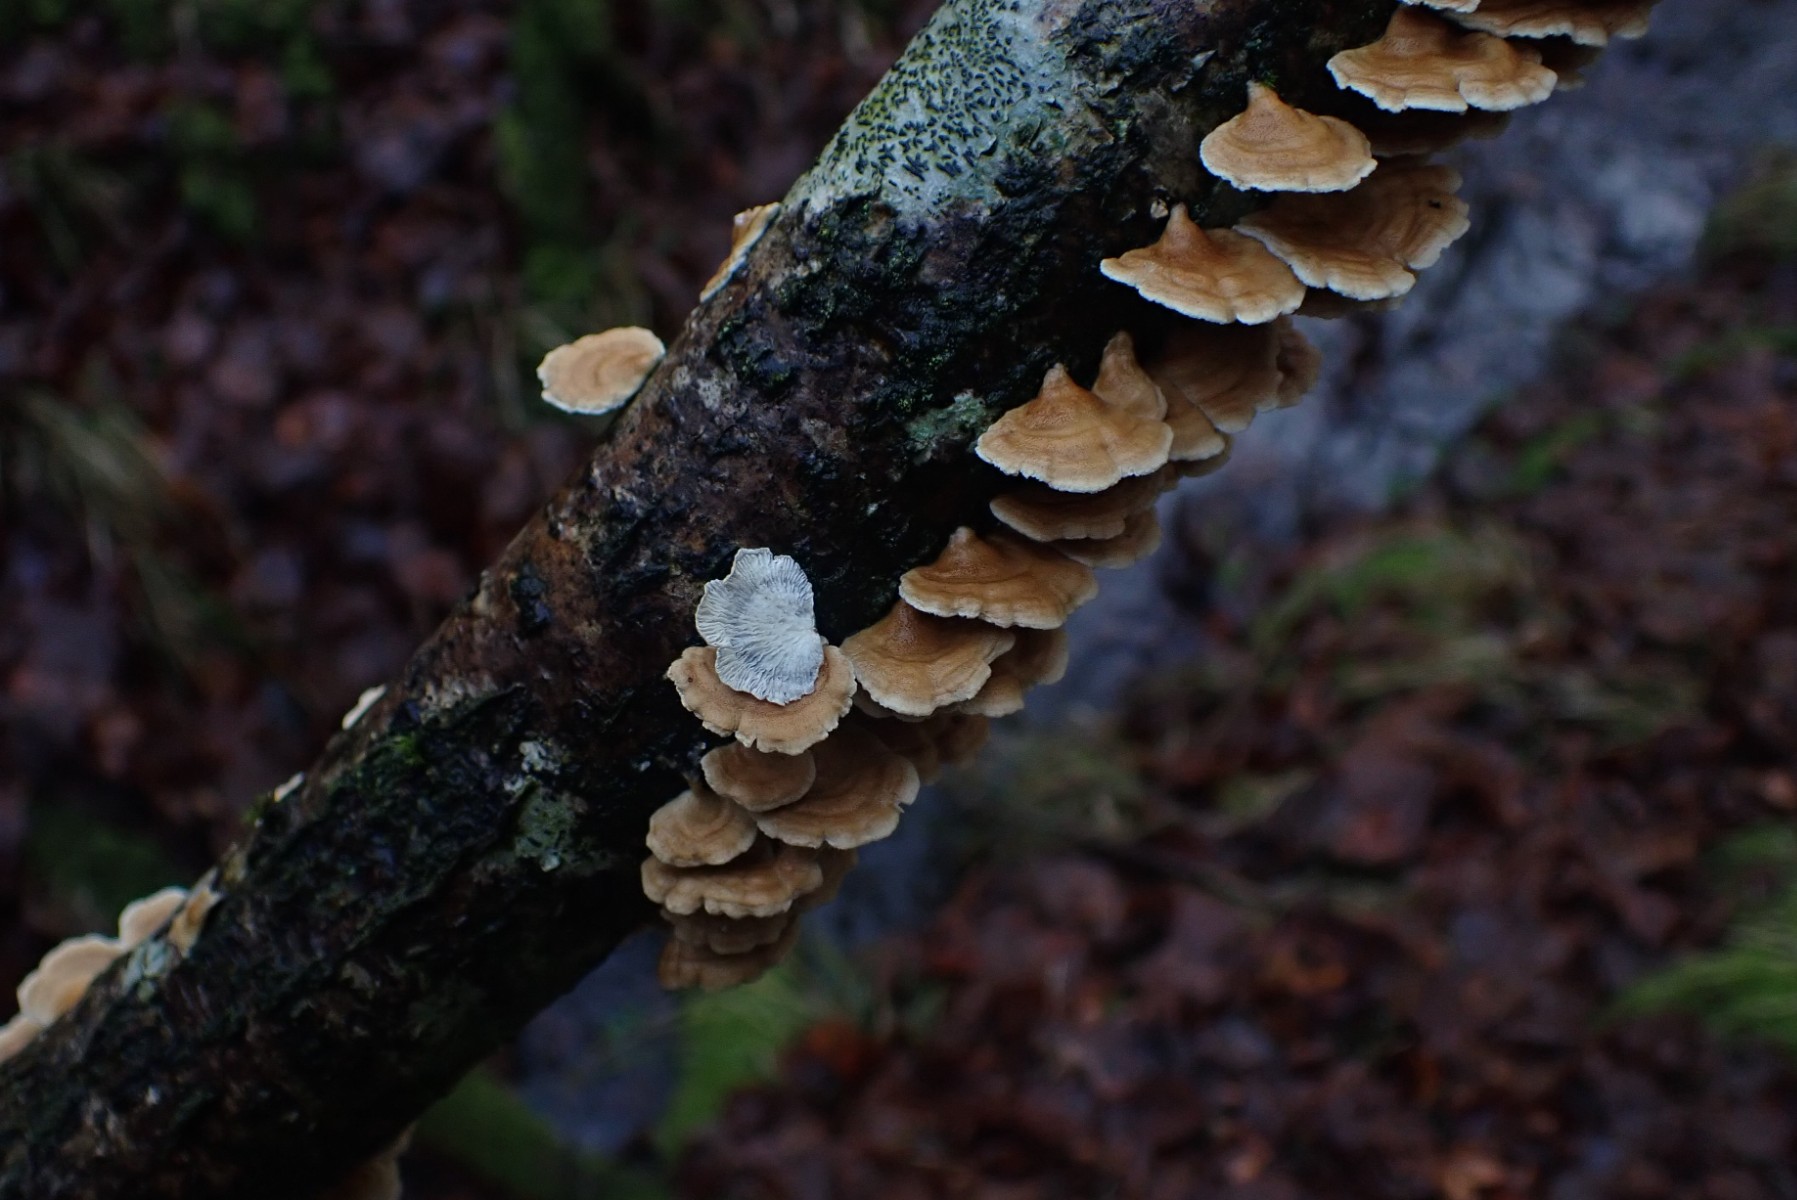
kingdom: Fungi
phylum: Basidiomycota
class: Agaricomycetes
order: Amylocorticiales
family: Amylocorticiaceae
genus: Plicaturopsis
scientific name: Plicaturopsis crispa
